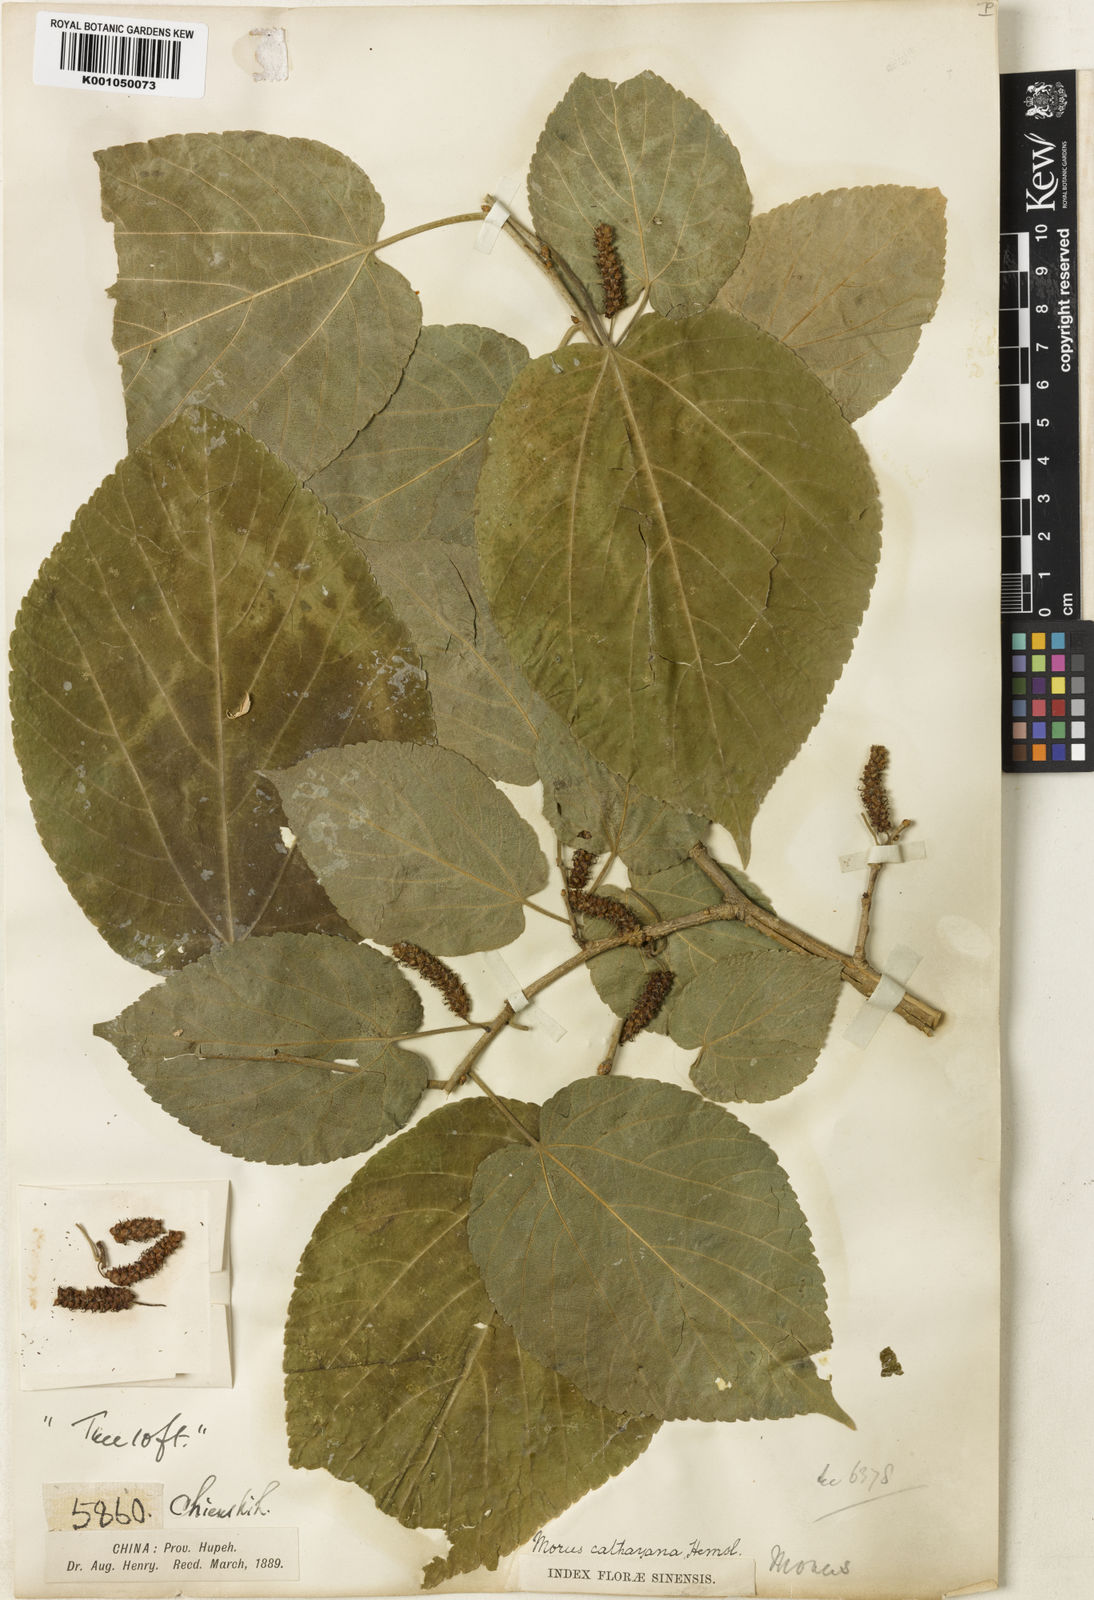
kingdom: Plantae
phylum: Tracheophyta
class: Magnoliopsida
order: Rosales
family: Moraceae
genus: Morus
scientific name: Morus cathayana
